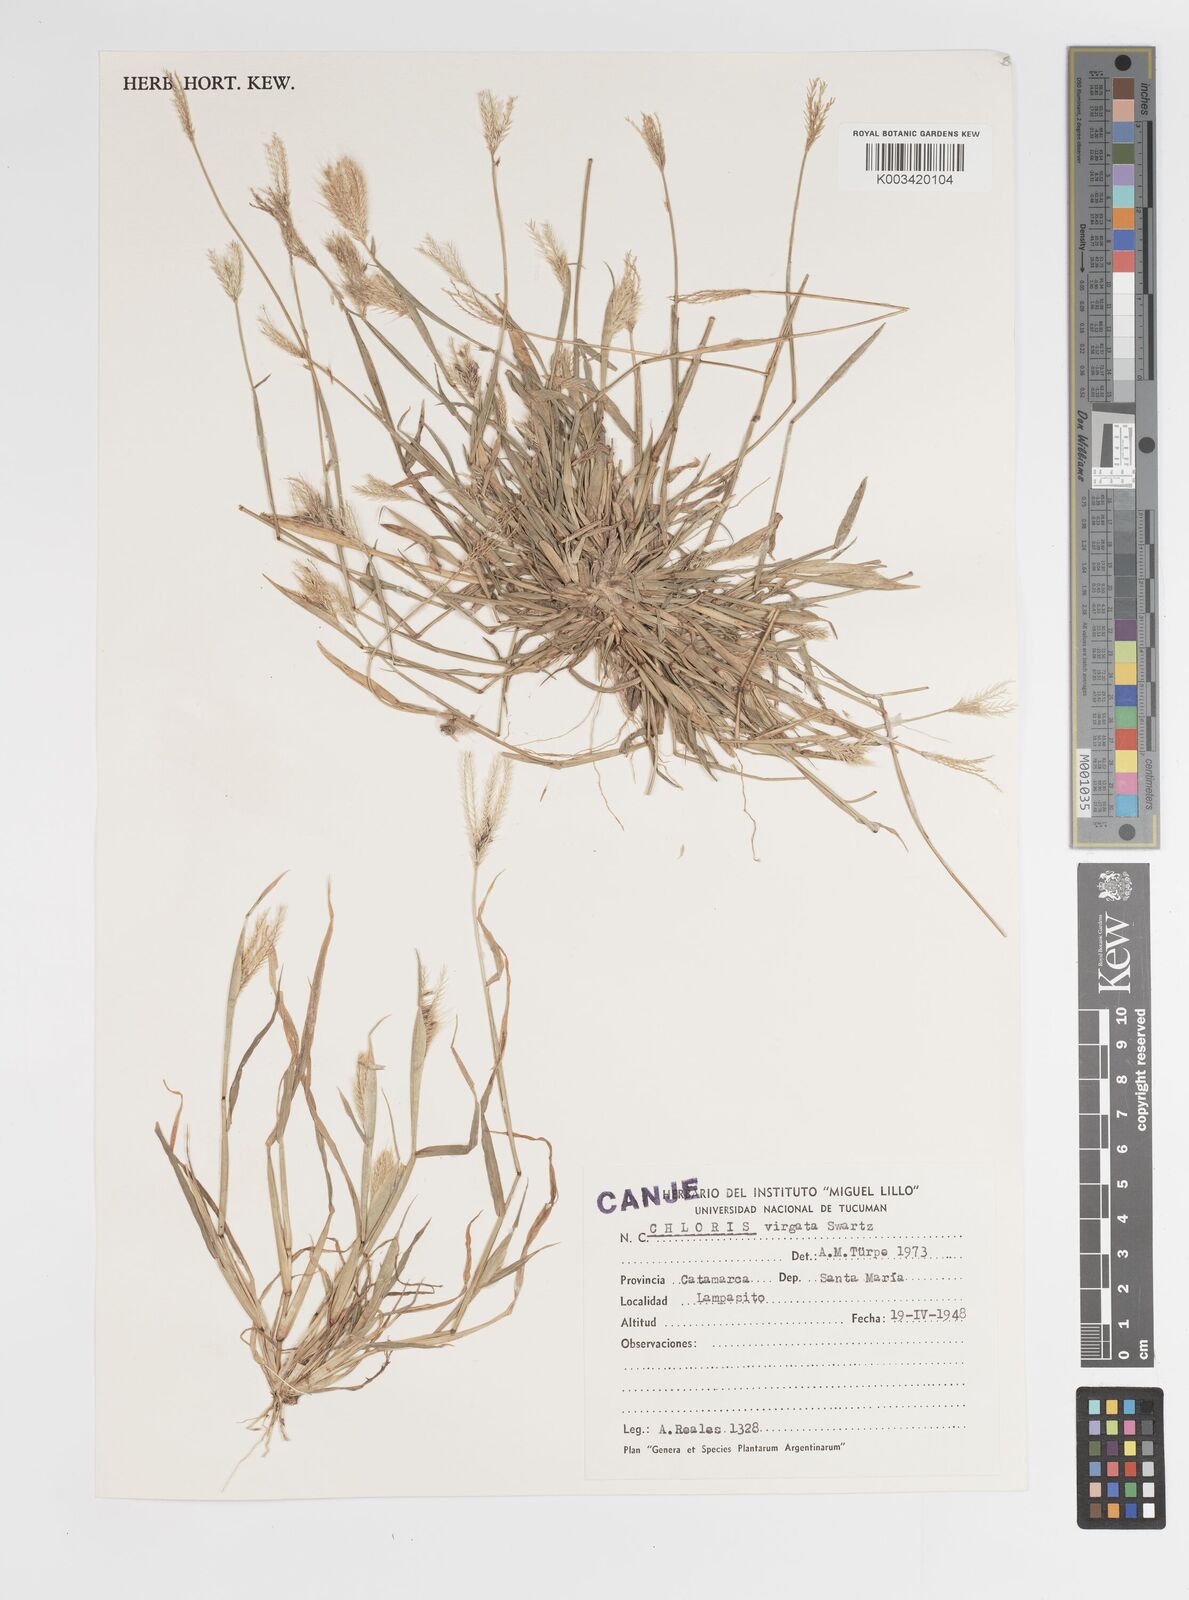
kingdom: Plantae
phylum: Tracheophyta
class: Liliopsida
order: Poales
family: Poaceae
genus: Chloris
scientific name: Chloris virgata
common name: Feathery rhodes-grass
